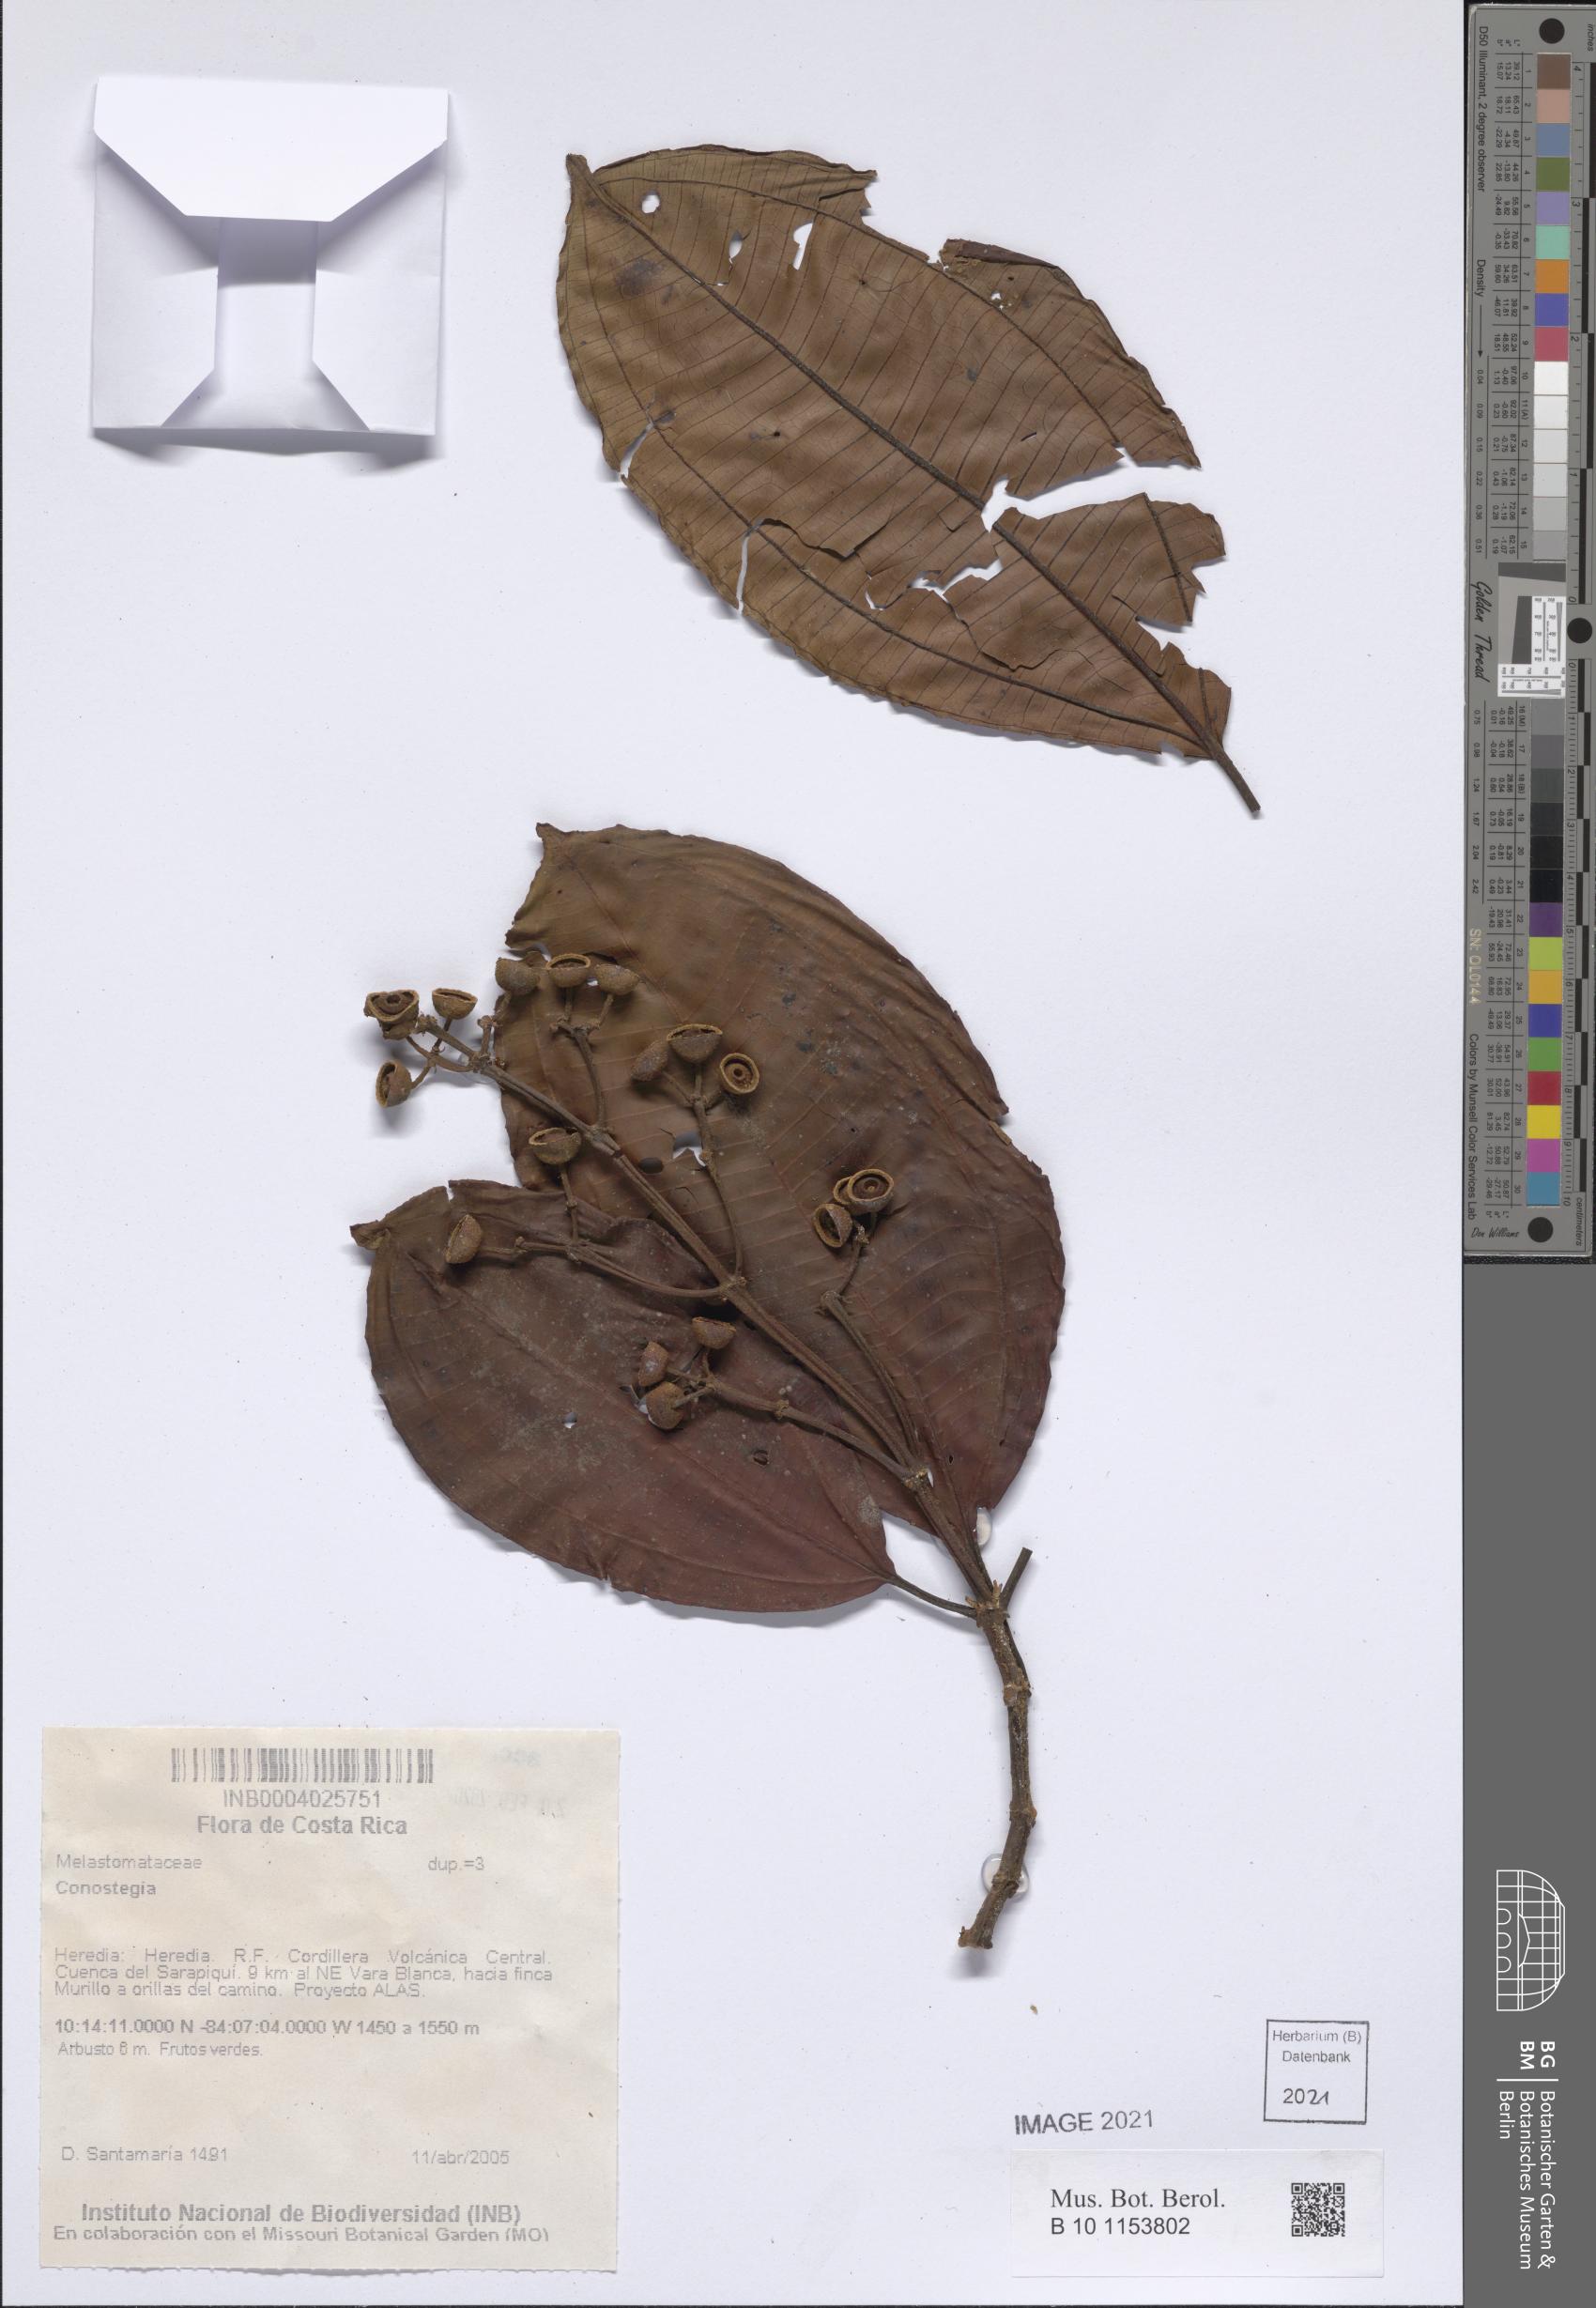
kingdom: Plantae
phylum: Tracheophyta
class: Magnoliopsida
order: Myrtales
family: Melastomataceae
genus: Miconia
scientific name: Miconia
